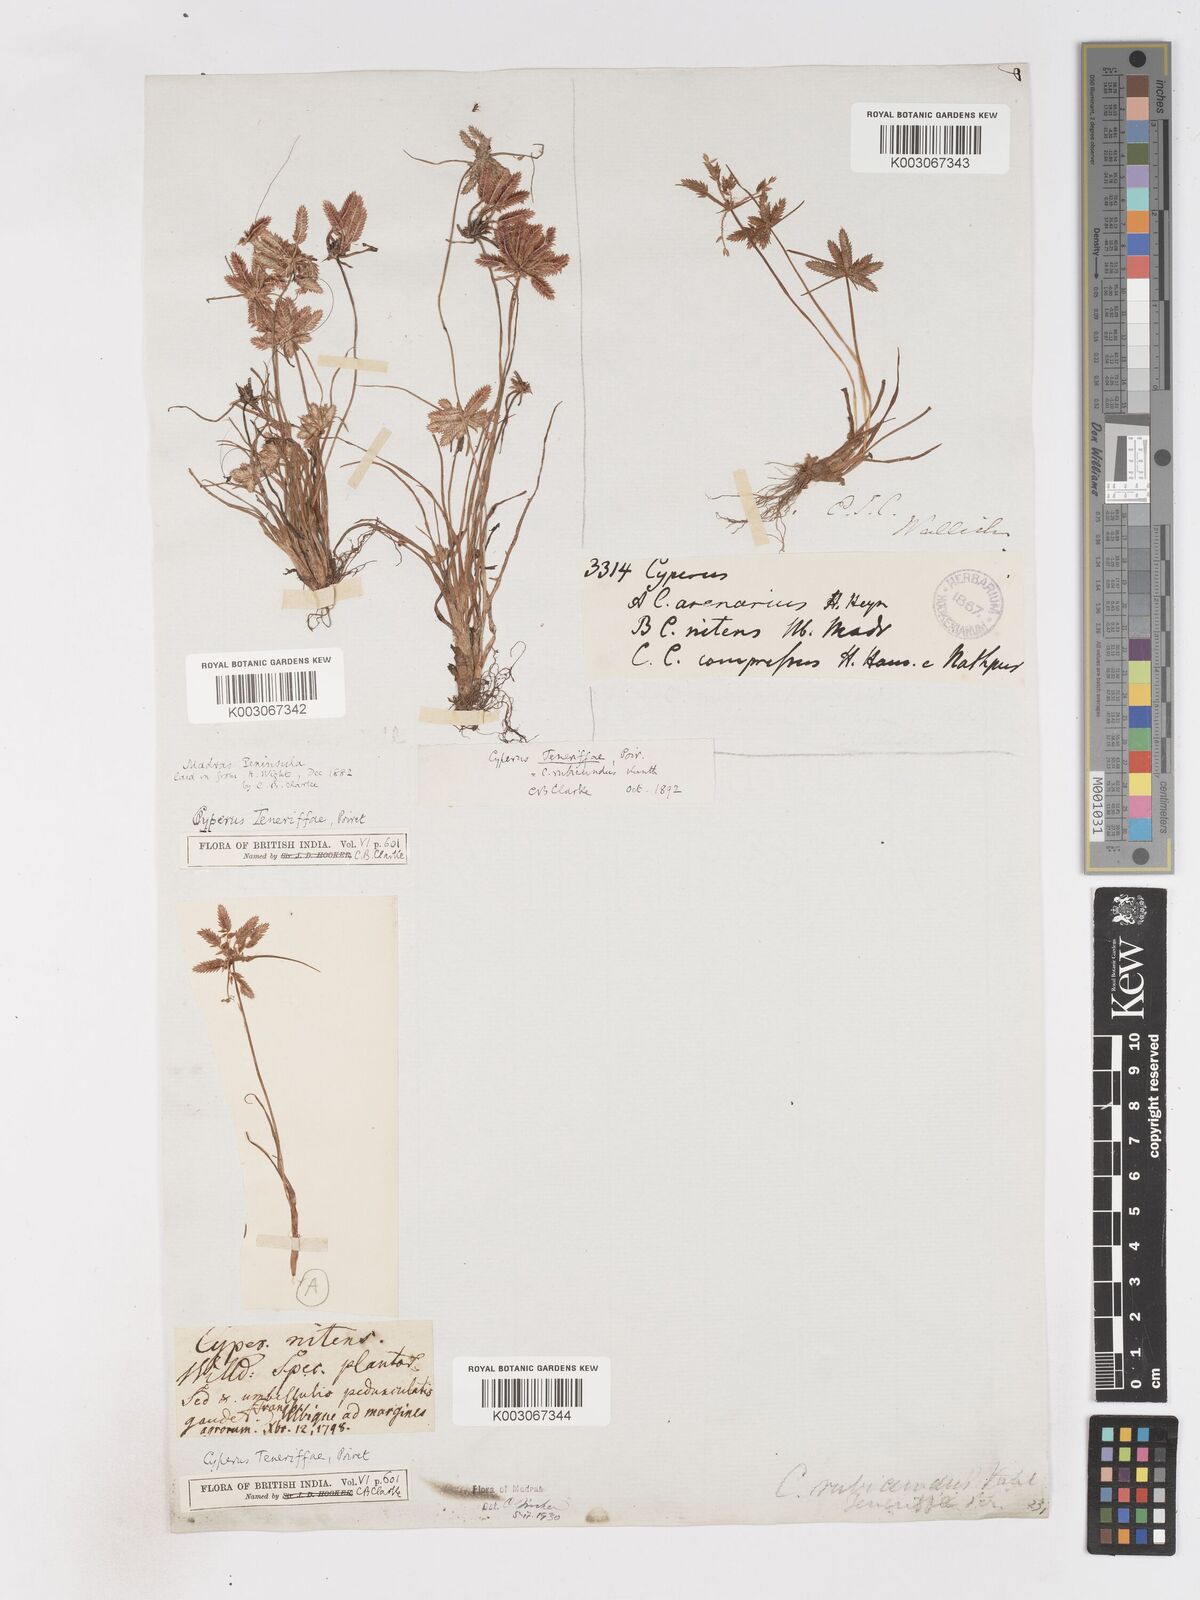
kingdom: Plantae
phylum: Tracheophyta
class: Liliopsida
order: Poales
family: Cyperaceae
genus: Cyperus
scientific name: Cyperus rubicundus
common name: Coco-grass
